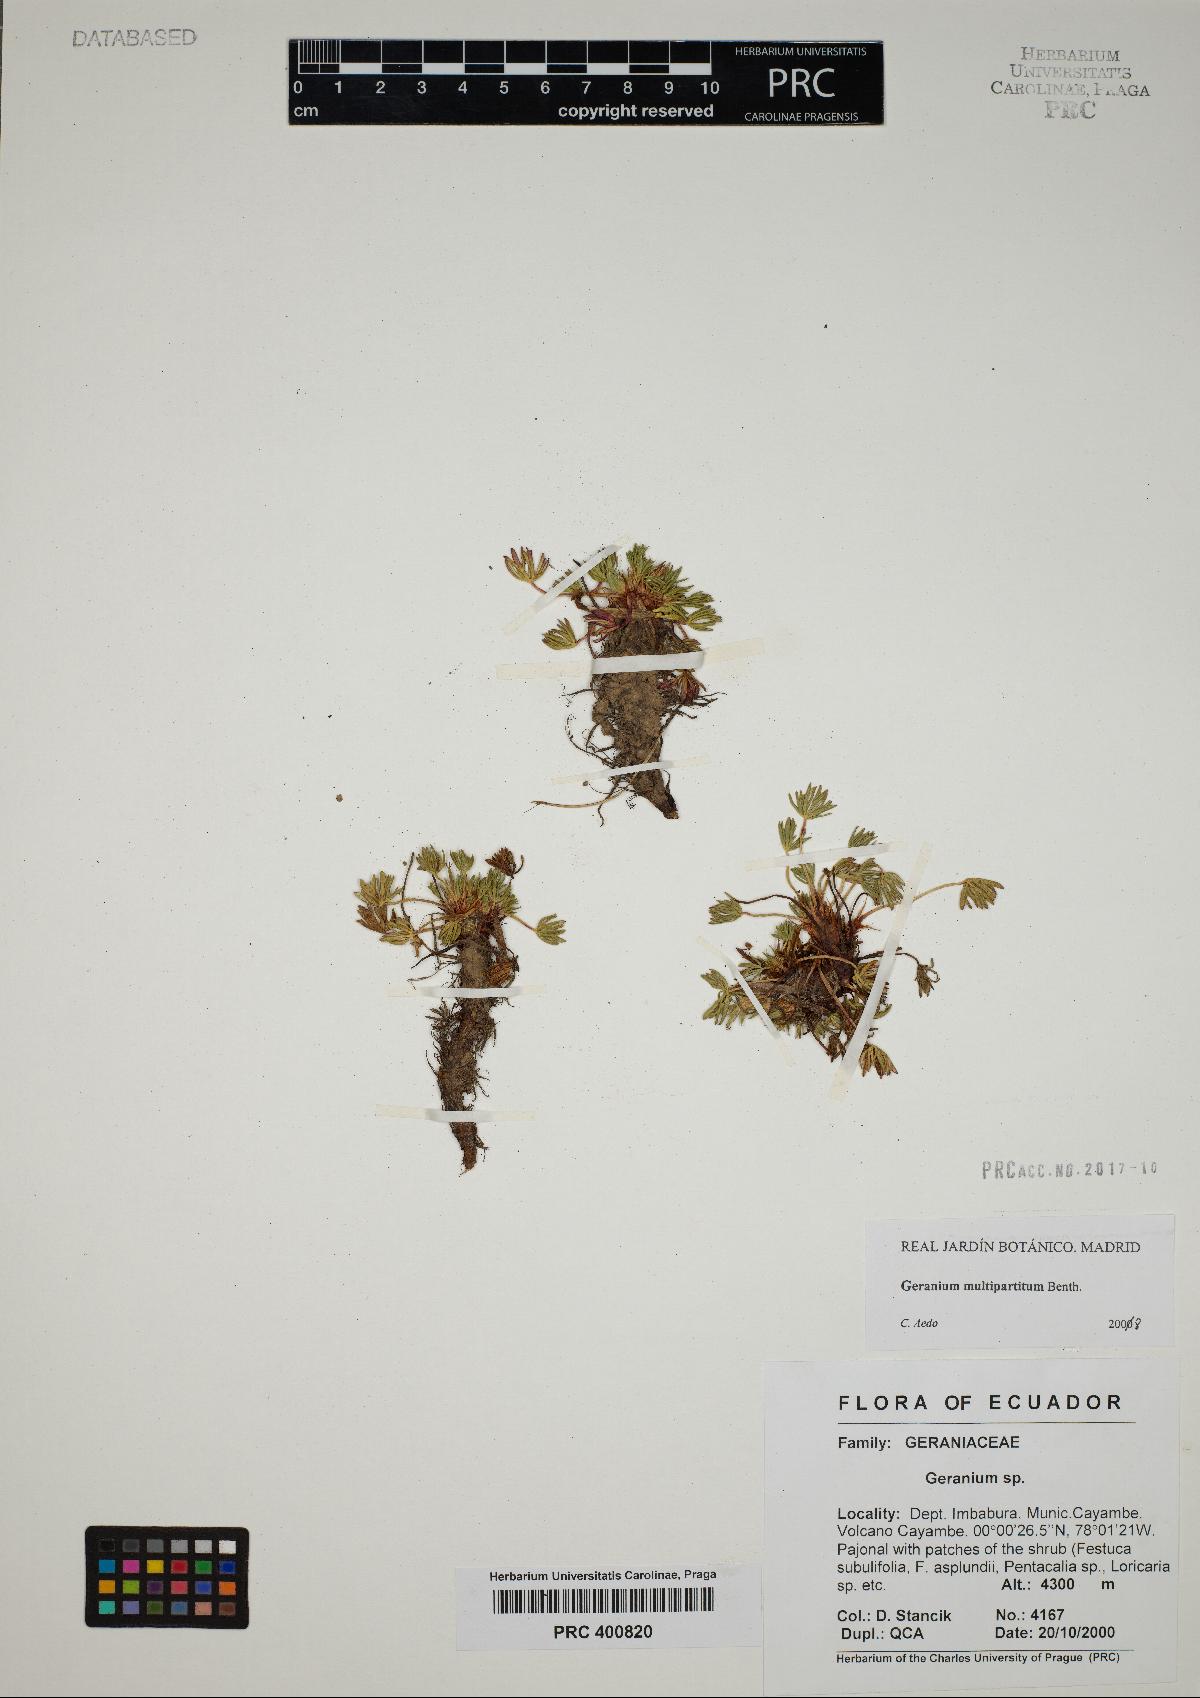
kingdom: Plantae
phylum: Tracheophyta
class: Magnoliopsida
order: Geraniales
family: Geraniaceae
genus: Geranium
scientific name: Geranium multipartitum
